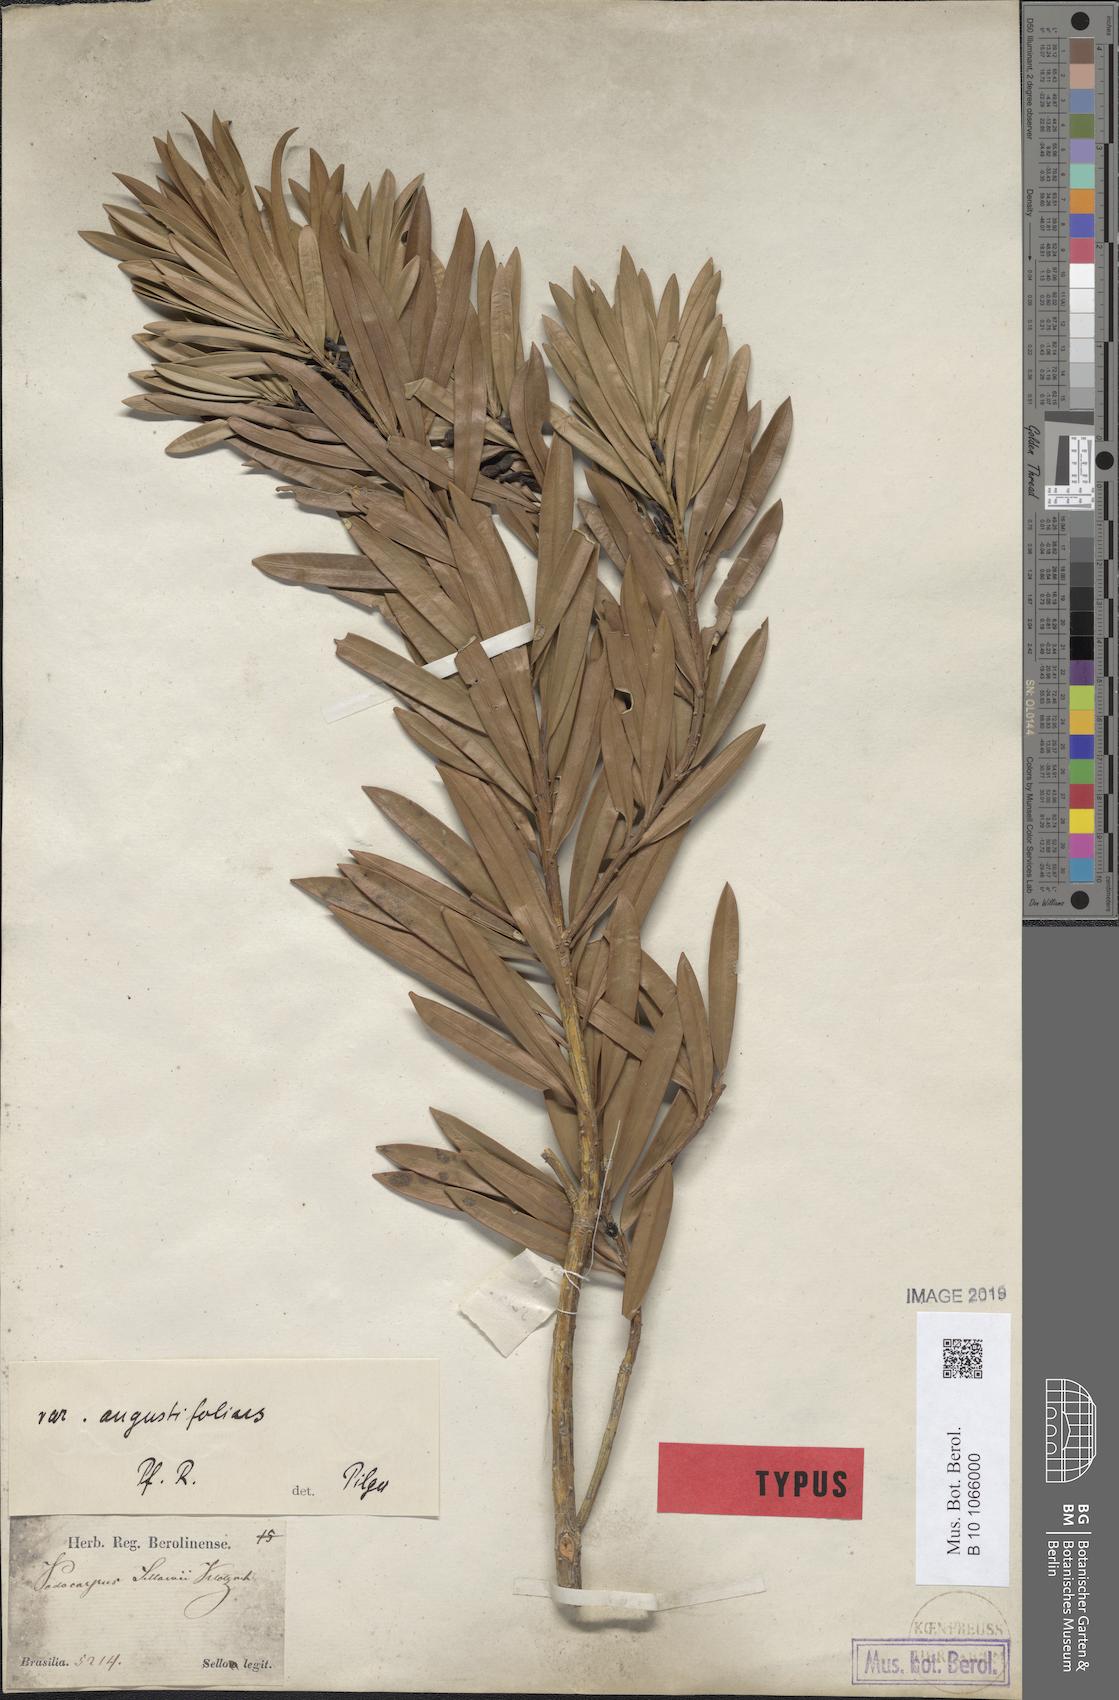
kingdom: Plantae
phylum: Tracheophyta
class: Pinopsida
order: Pinales
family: Podocarpaceae
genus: Podocarpus
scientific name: Podocarpus sellowii
